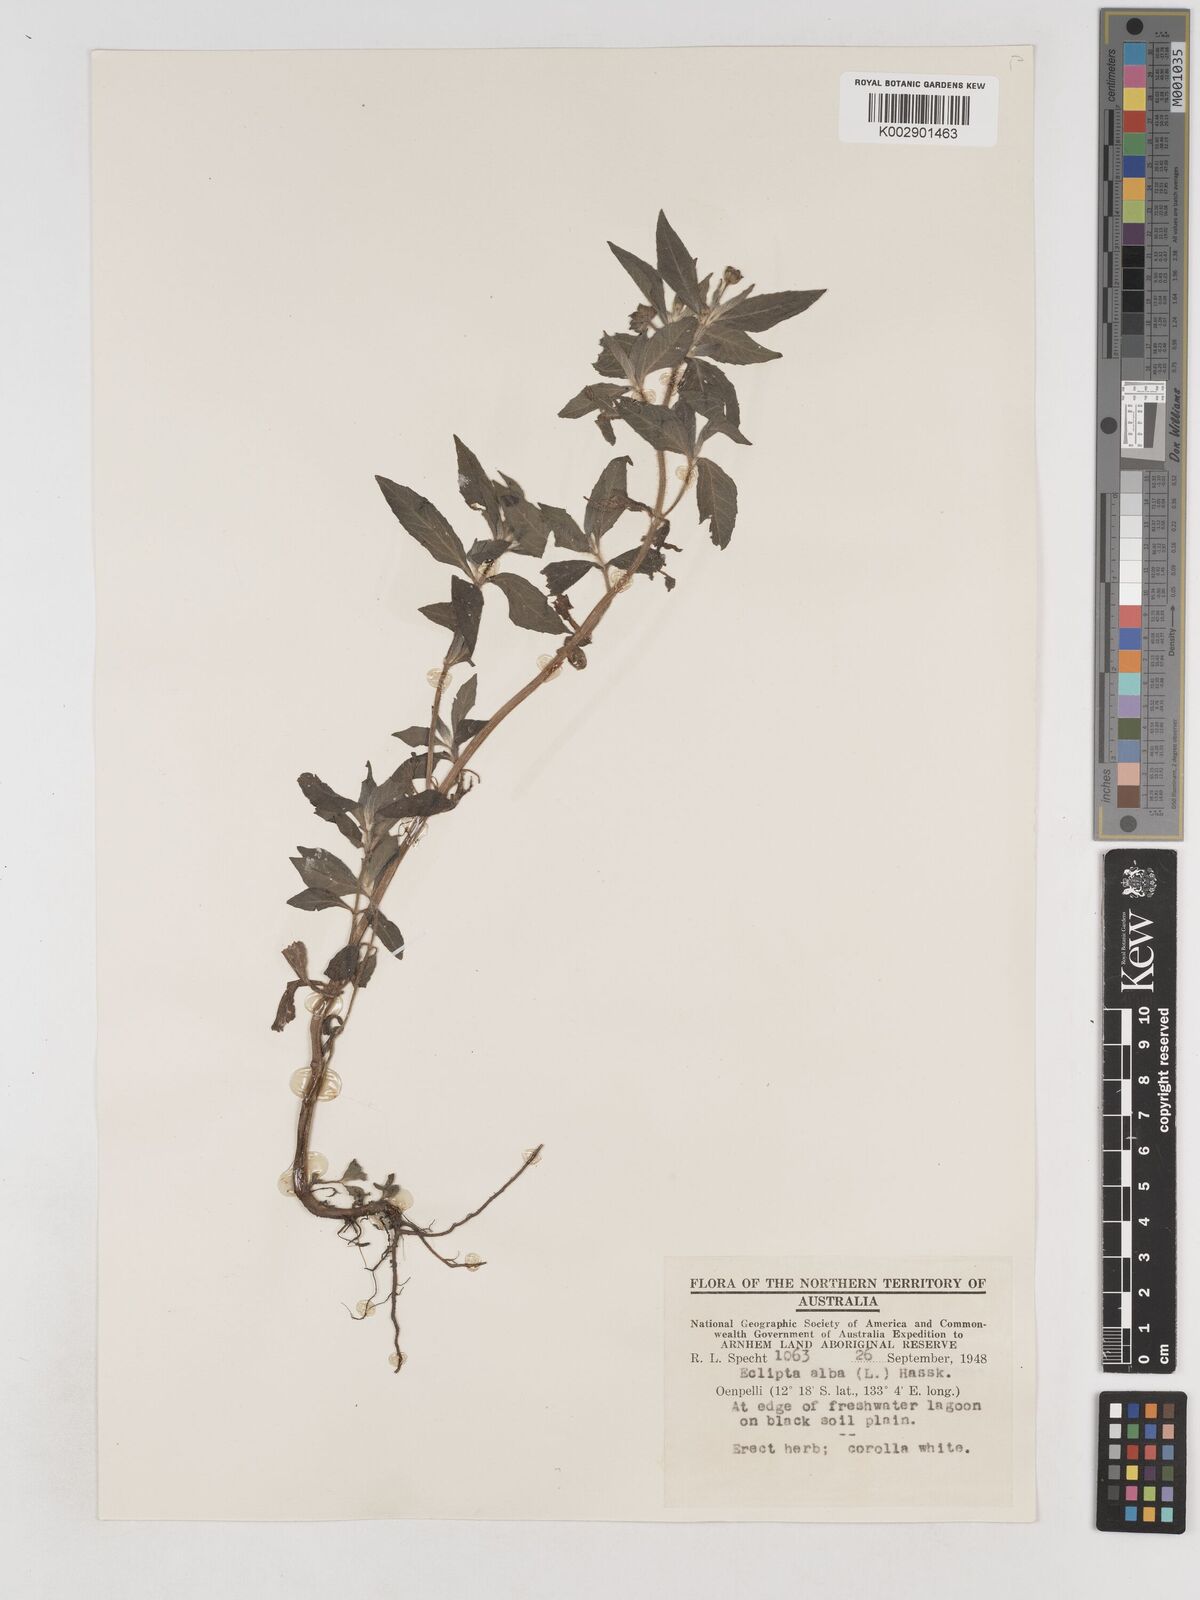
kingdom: Plantae
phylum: Tracheophyta
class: Magnoliopsida
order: Asterales
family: Asteraceae
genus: Eclipta
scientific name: Eclipta alba
